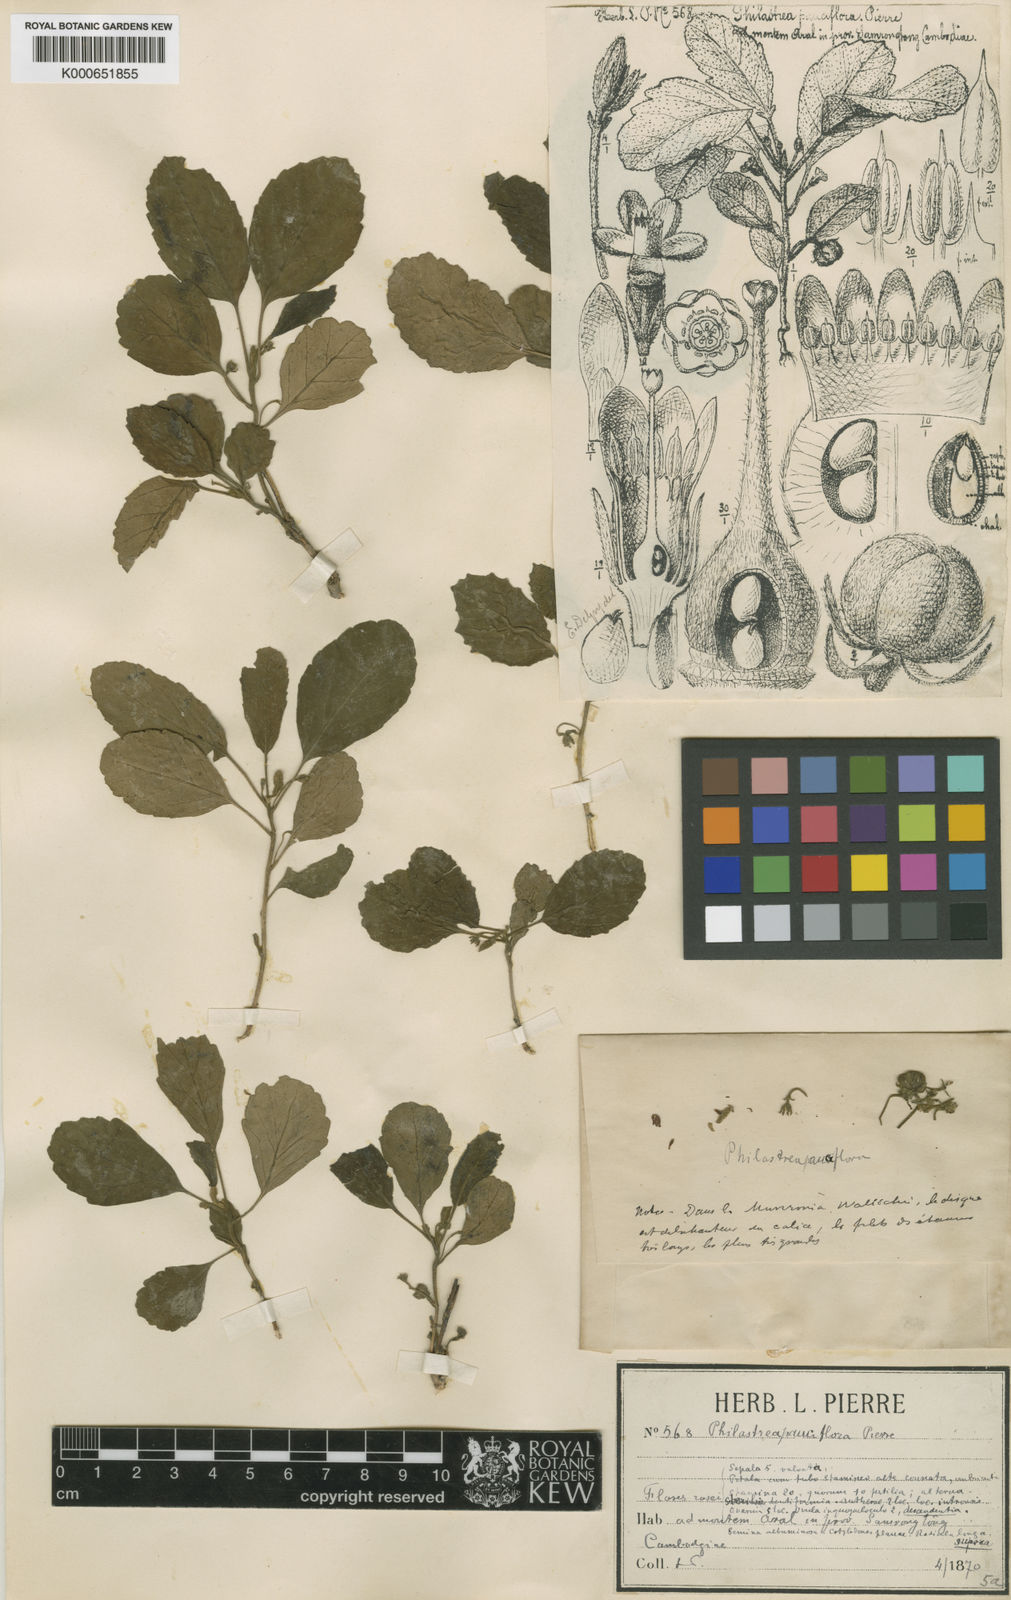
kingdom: Plantae
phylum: Tracheophyta
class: Magnoliopsida
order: Sapindales
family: Meliaceae
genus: Munronia
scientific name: Munronia pauciflora
